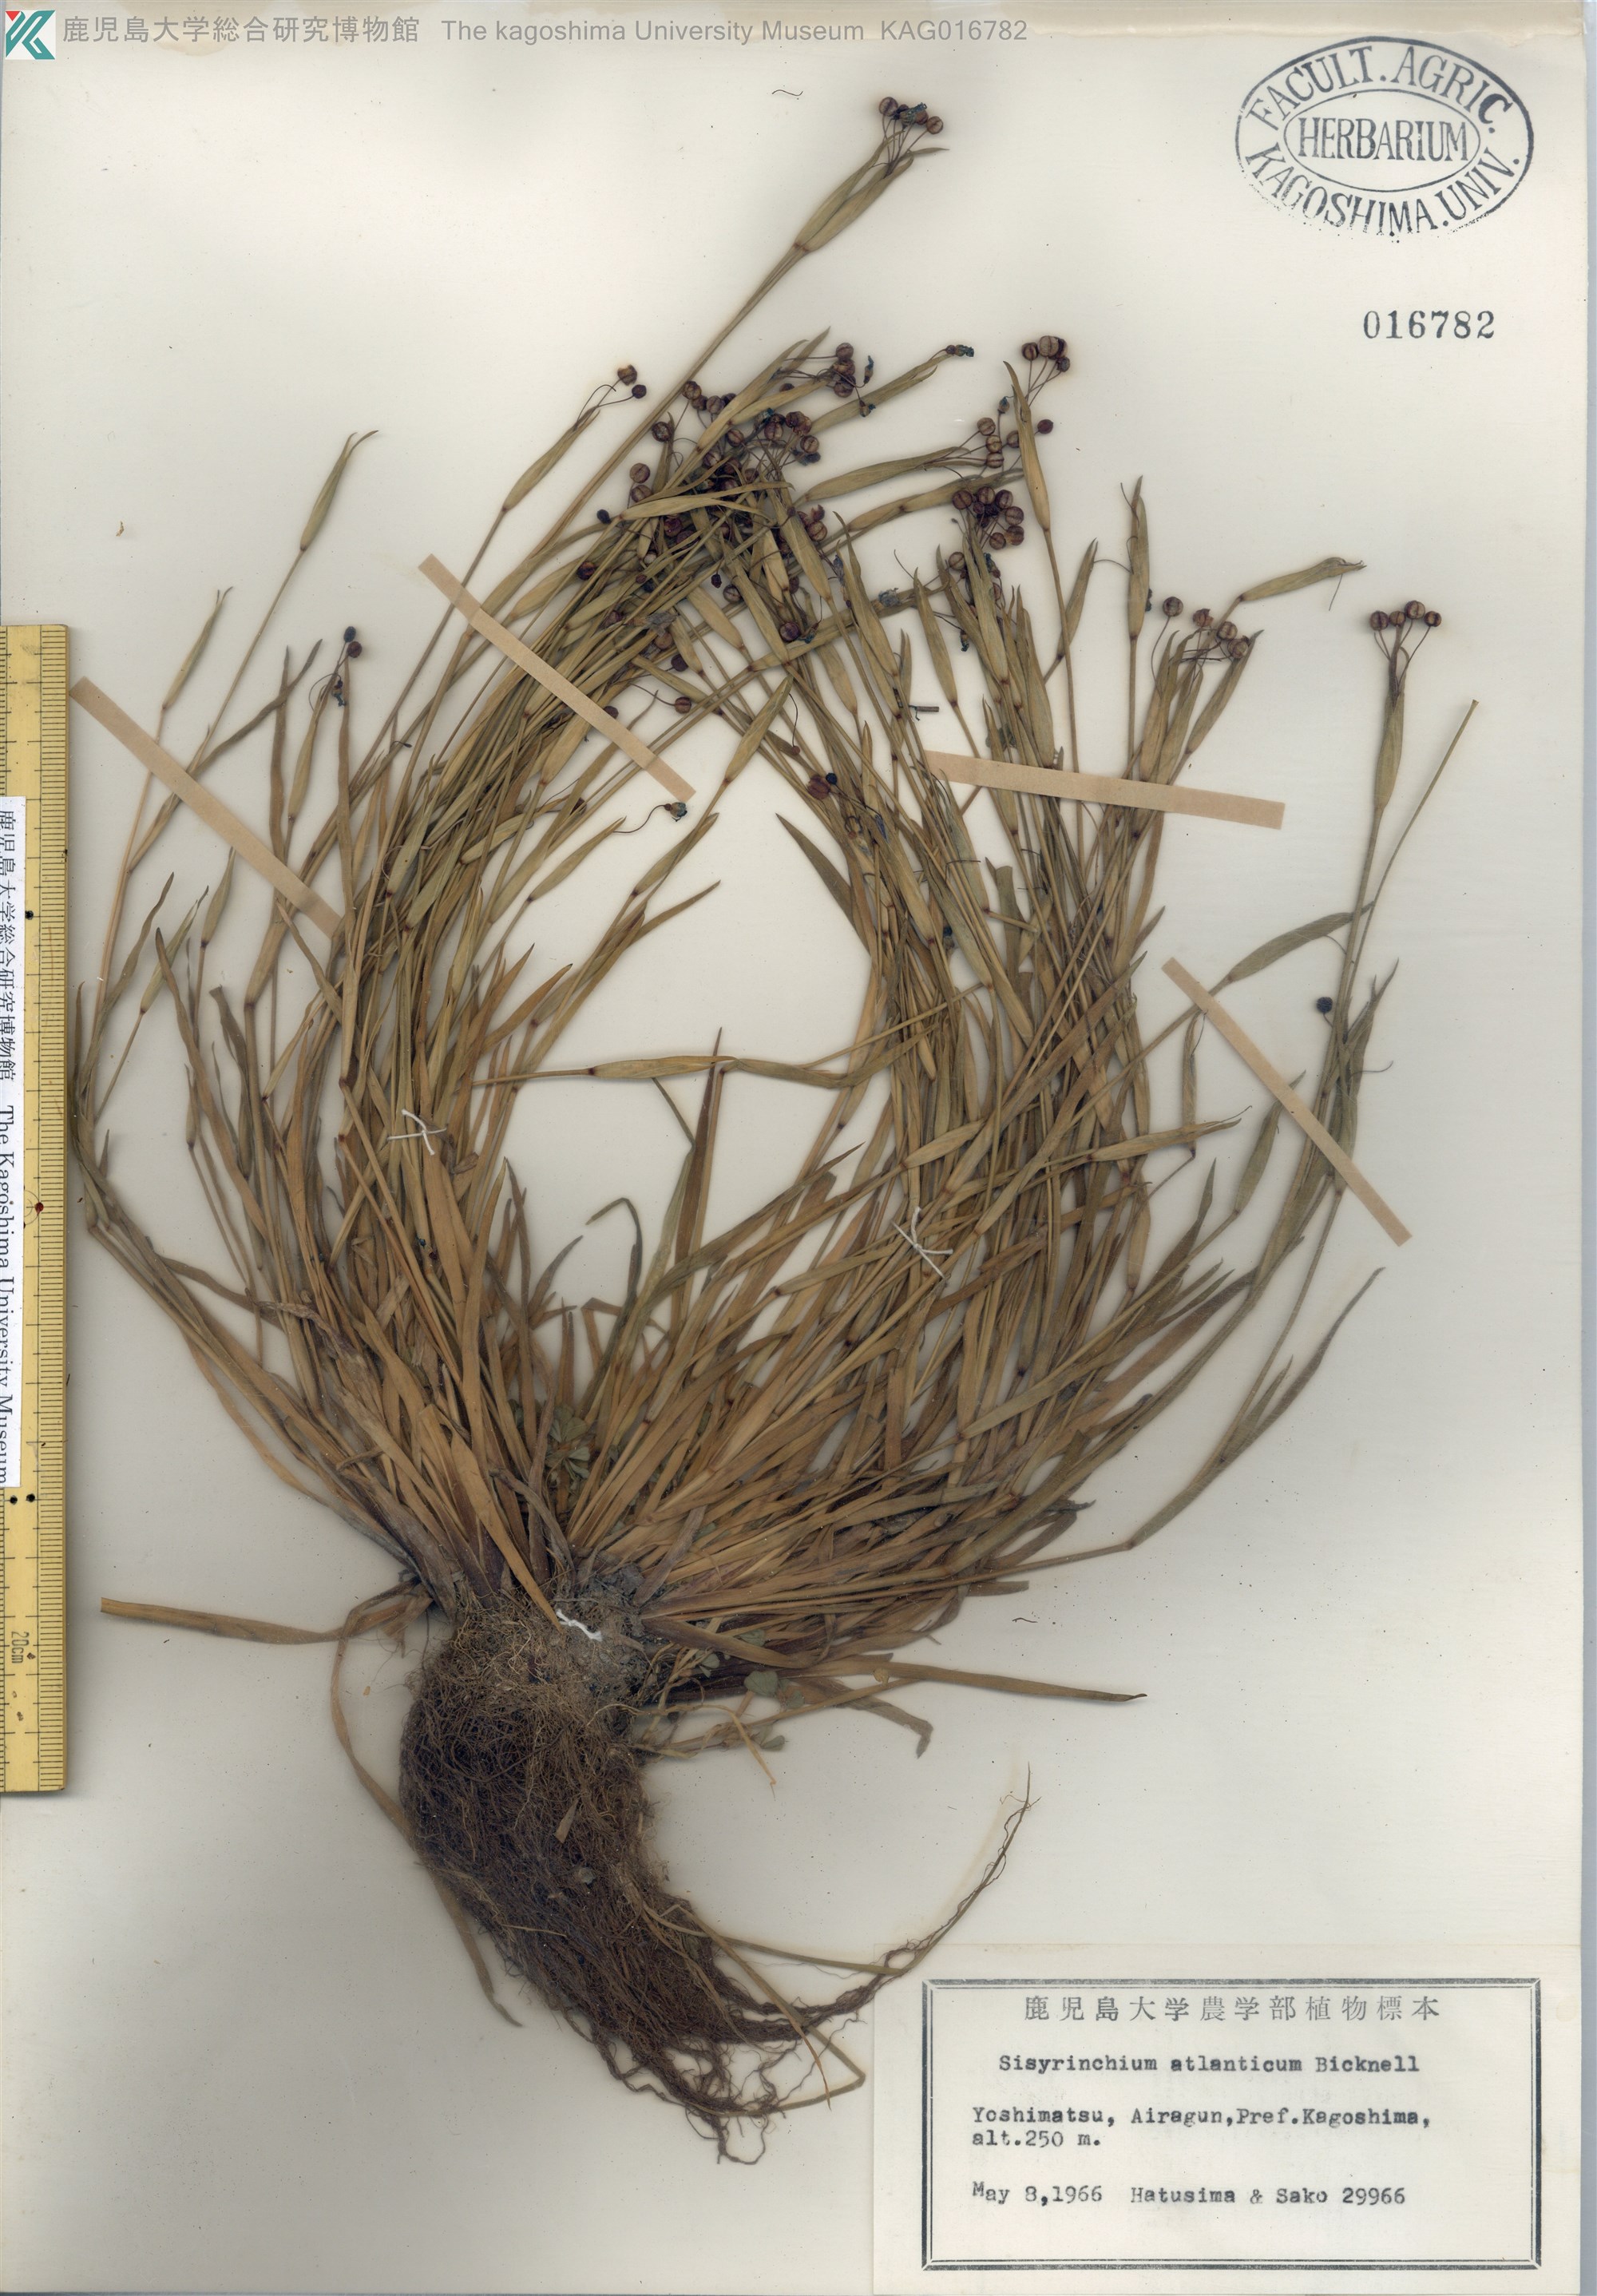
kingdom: Plantae
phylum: Tracheophyta
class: Liliopsida
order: Asparagales
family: Iridaceae
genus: Sisyrinchium
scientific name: Sisyrinchium rosulatum
